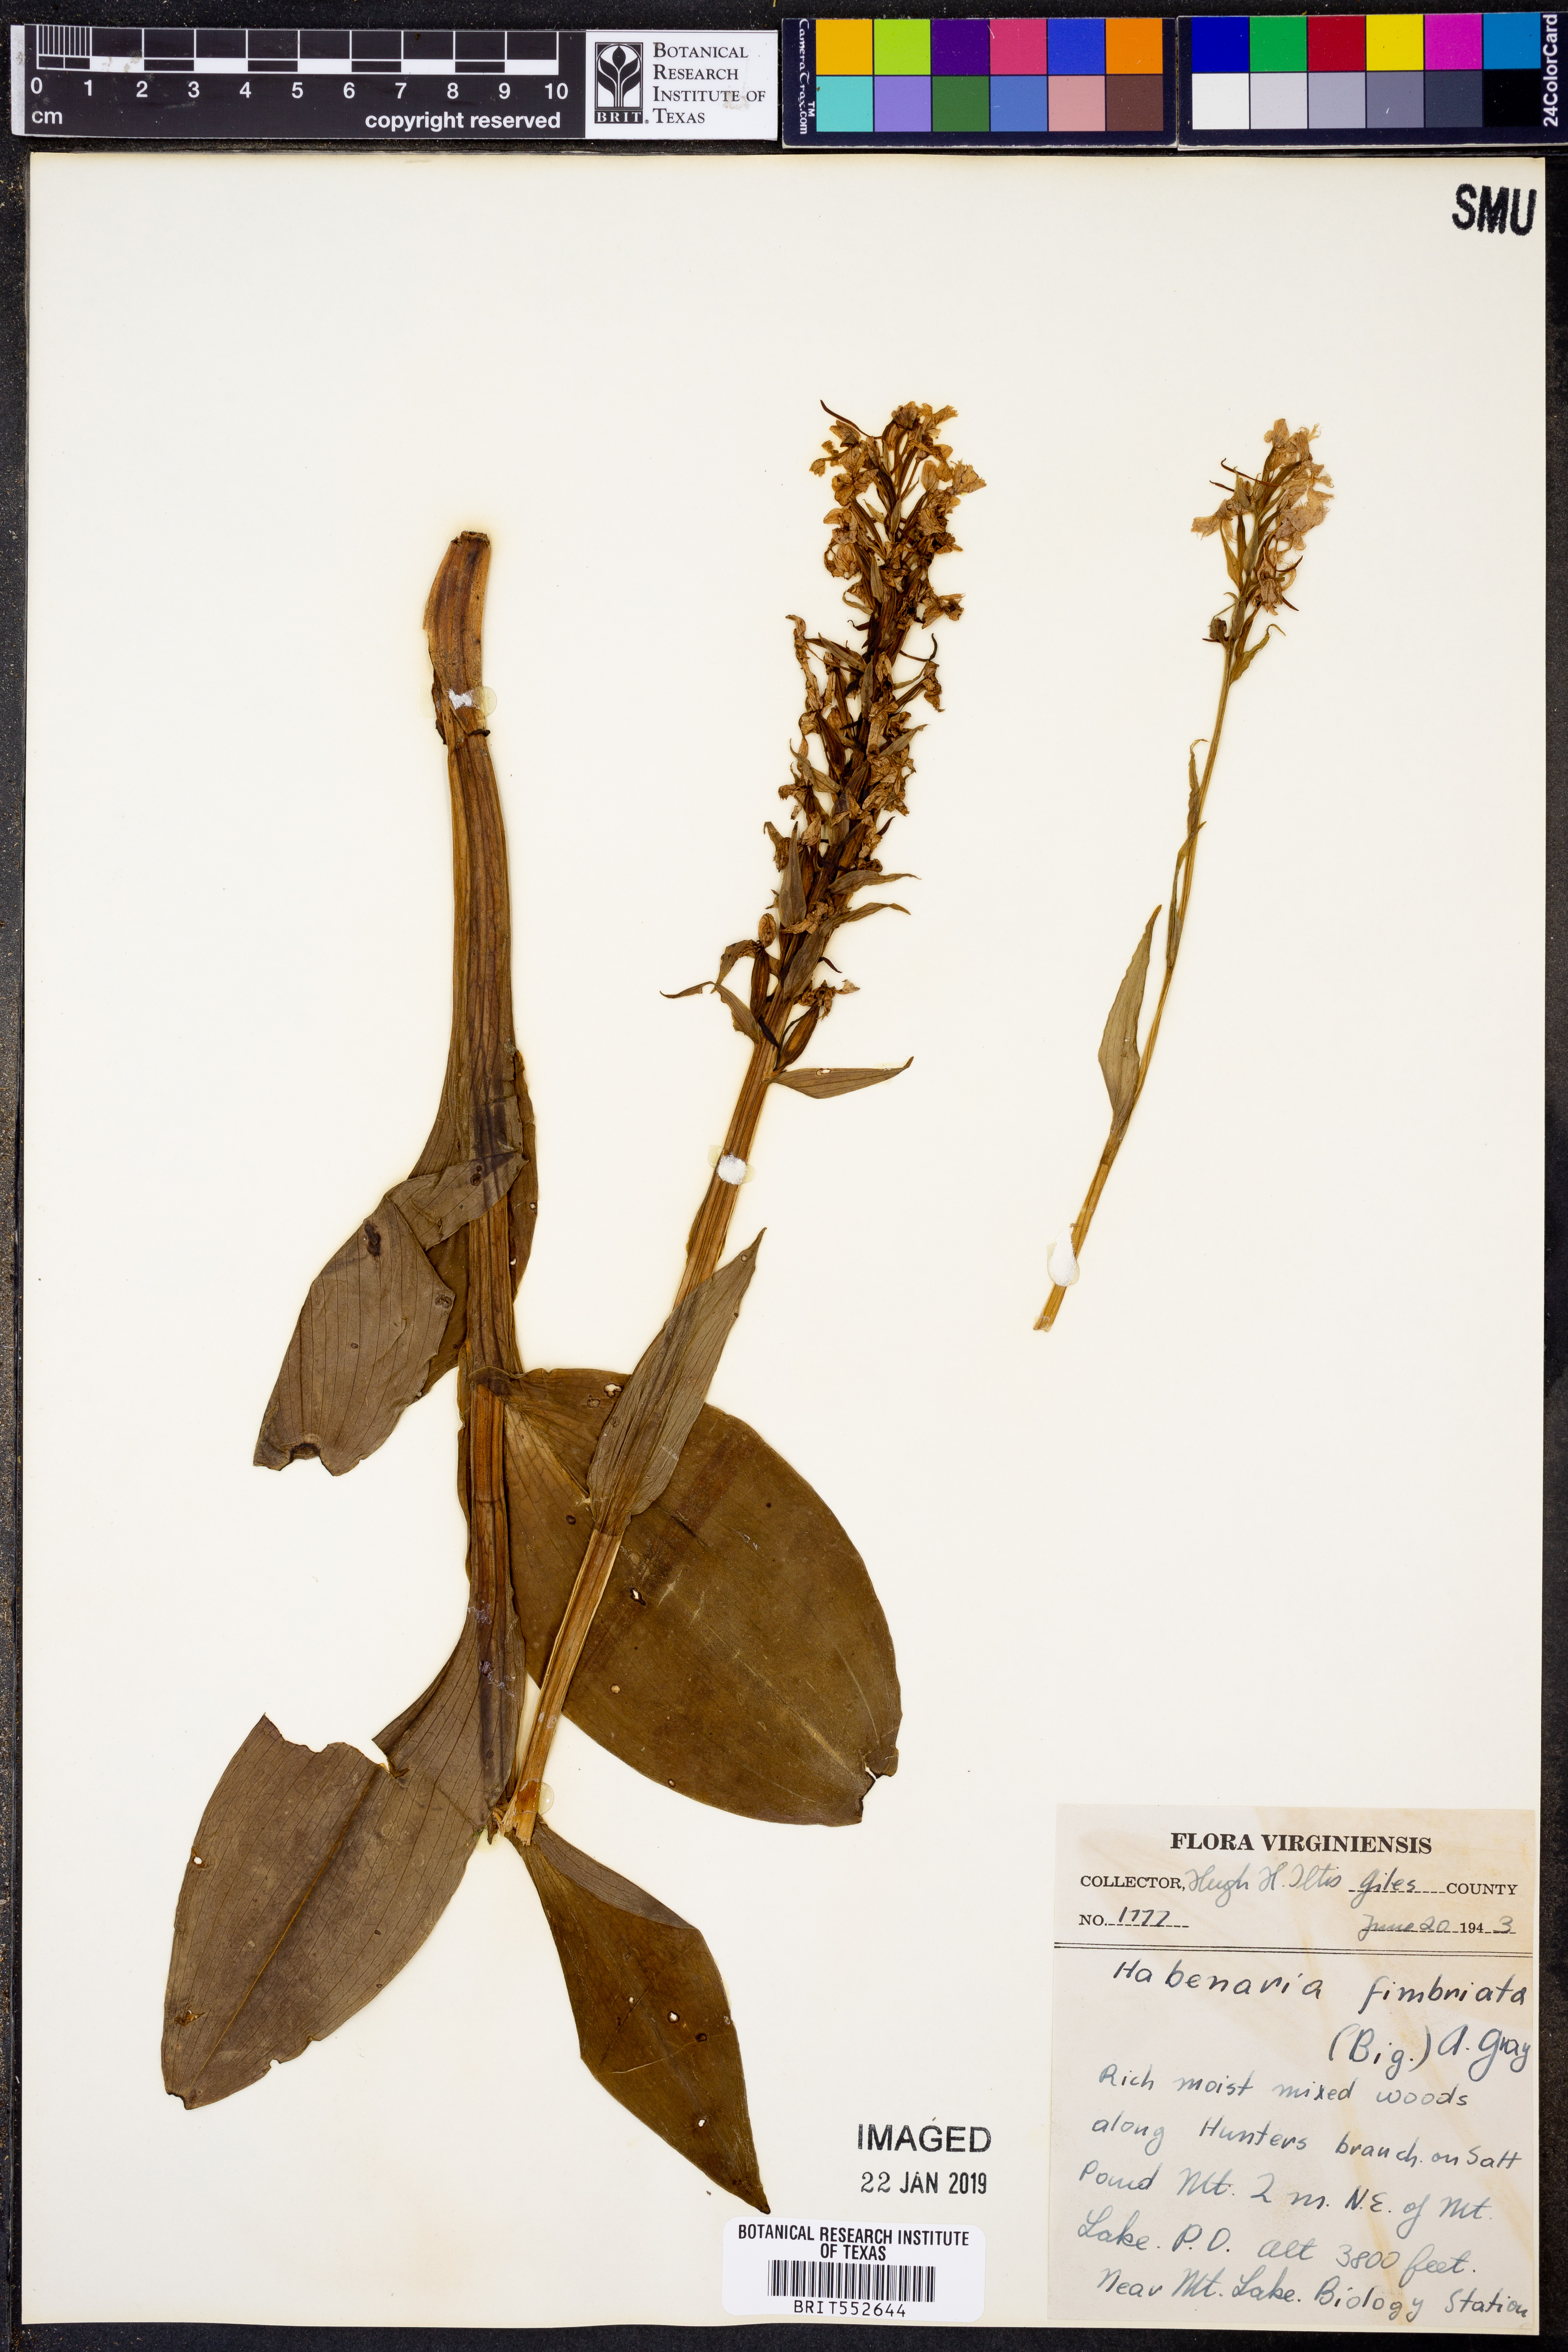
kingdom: Plantae
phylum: Tracheophyta
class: Liliopsida
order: Asparagales
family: Orchidaceae
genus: Platanthera
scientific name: Platanthera grandiflora
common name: Greater purple fringed orchid
